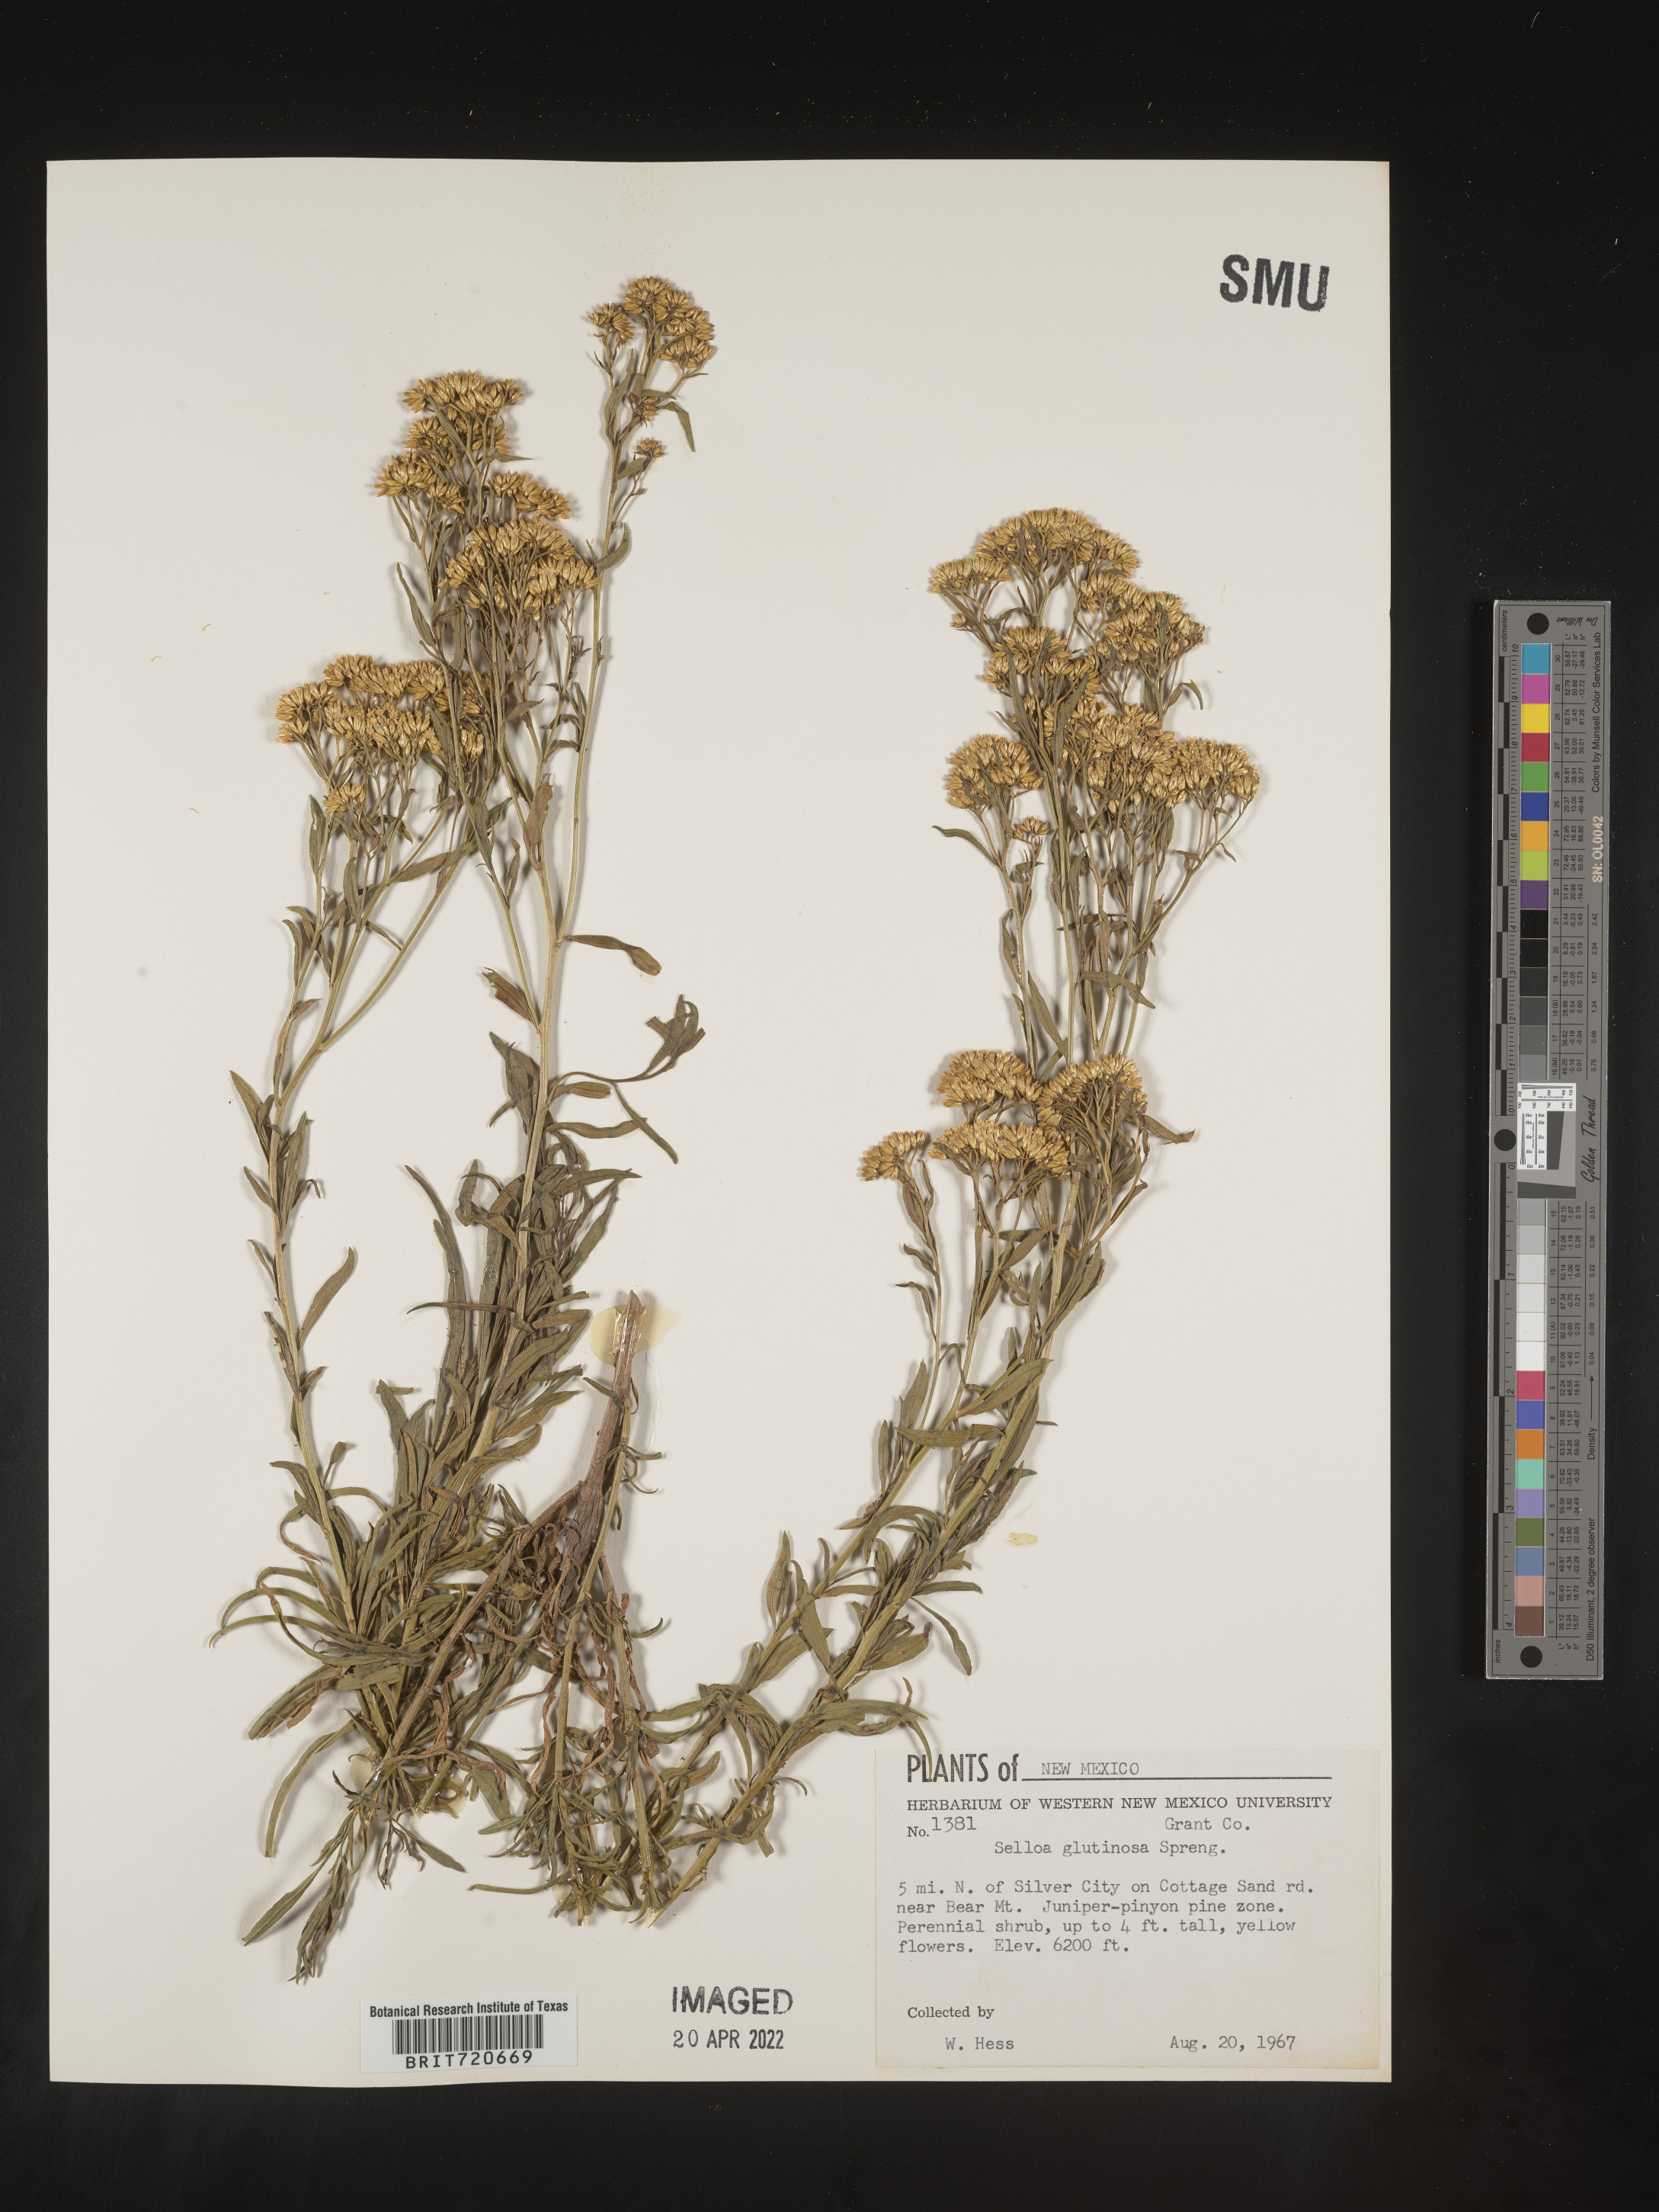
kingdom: Plantae
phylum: Tracheophyta
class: Magnoliopsida
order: Asterales
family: Asteraceae
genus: Gymnosperma
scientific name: Gymnosperma glutinosum
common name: Gumhead
